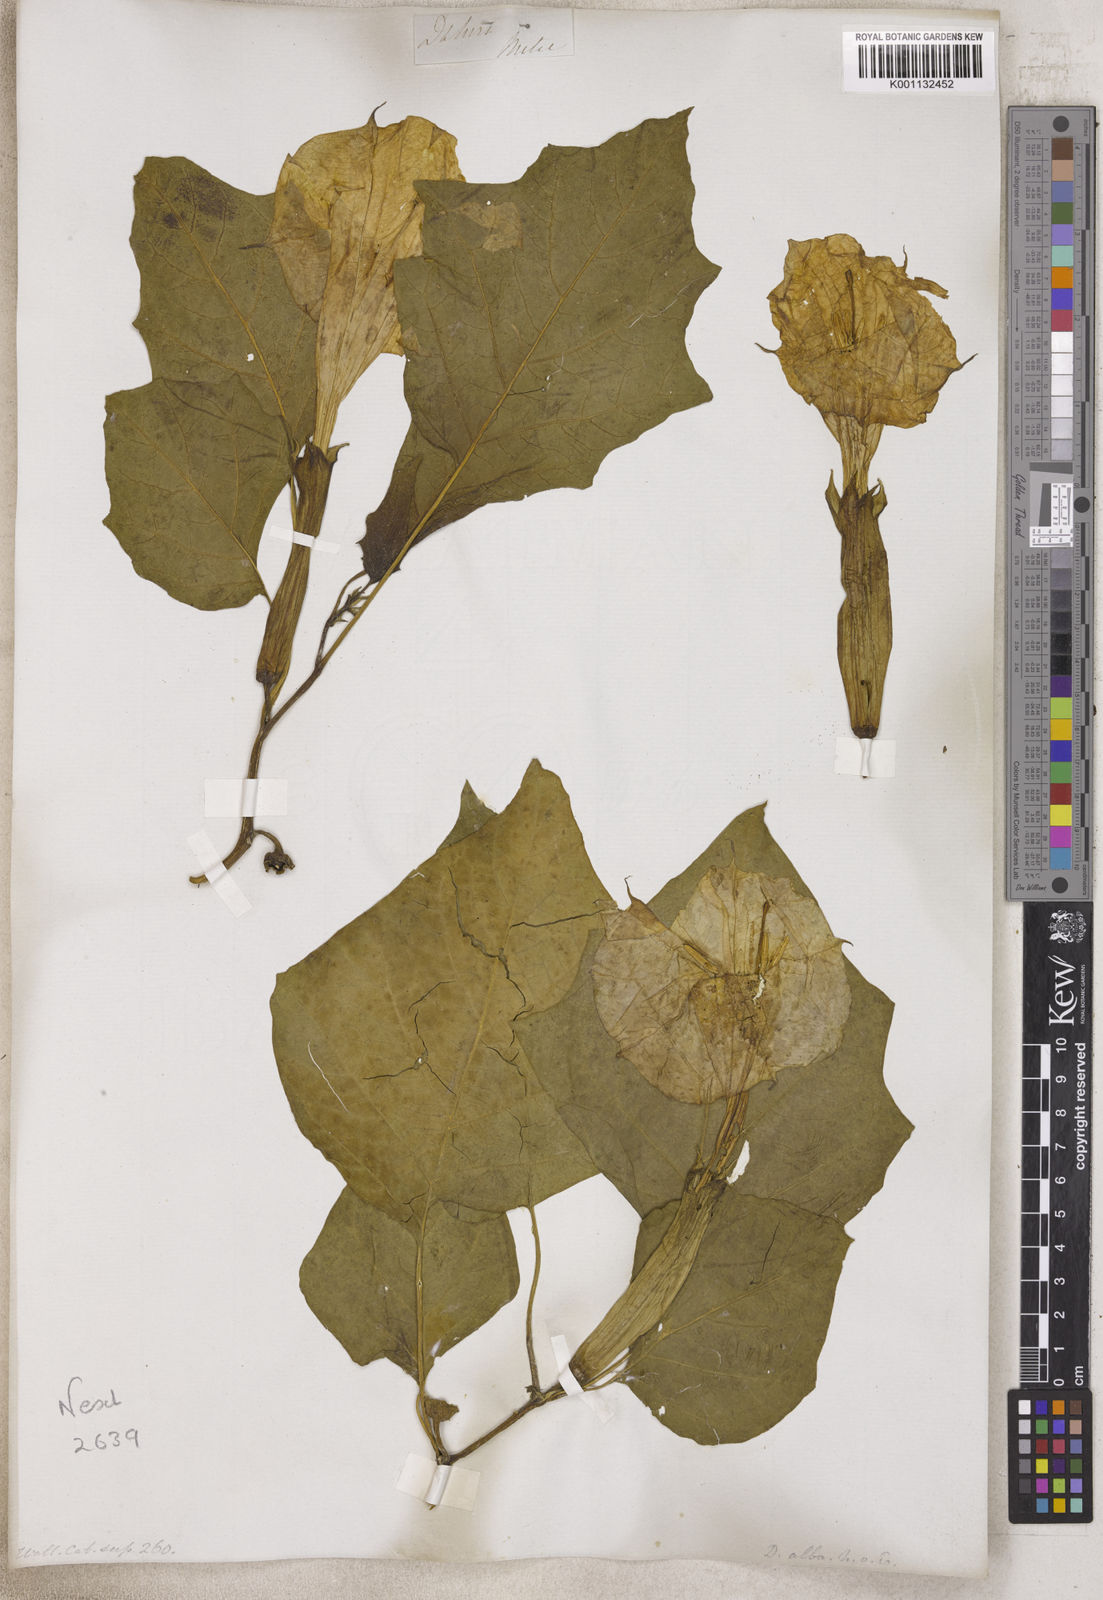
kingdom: Plantae
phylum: Tracheophyta
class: Magnoliopsida
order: Solanales
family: Solanaceae
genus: Datura
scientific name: Datura
